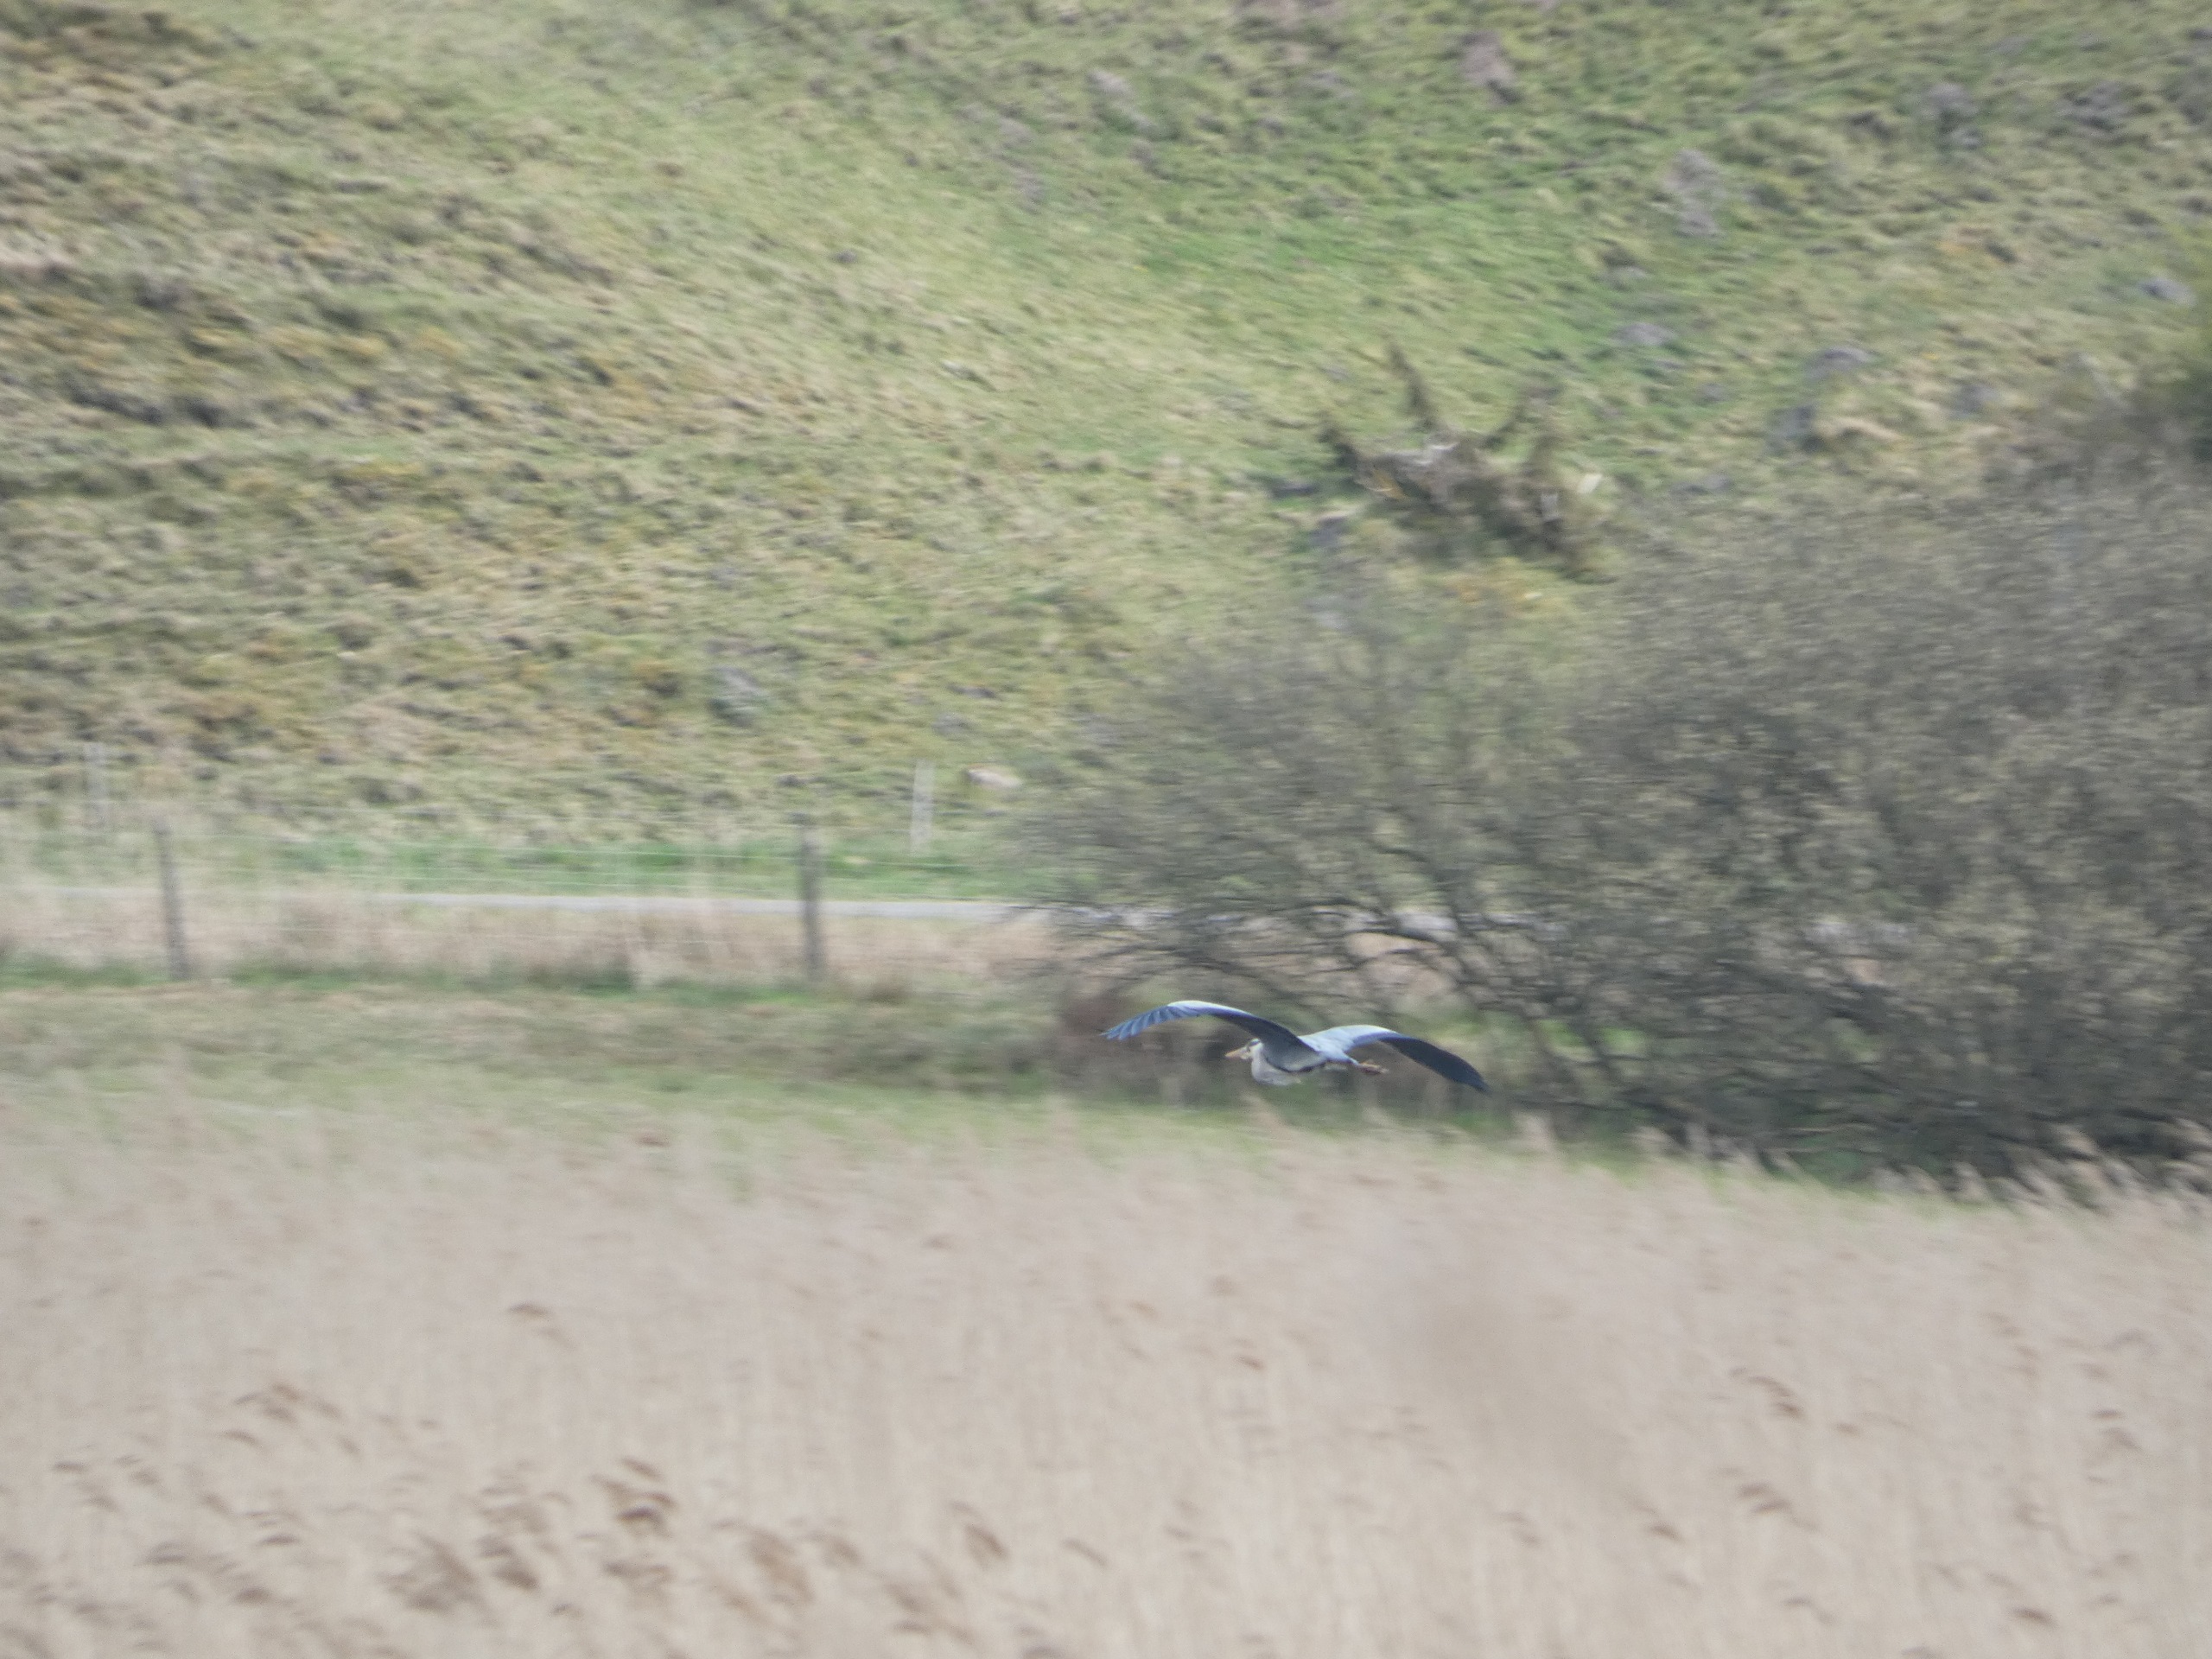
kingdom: Animalia
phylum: Chordata
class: Aves
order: Pelecaniformes
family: Ardeidae
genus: Ardea
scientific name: Ardea cinerea
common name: Fiskehejre
